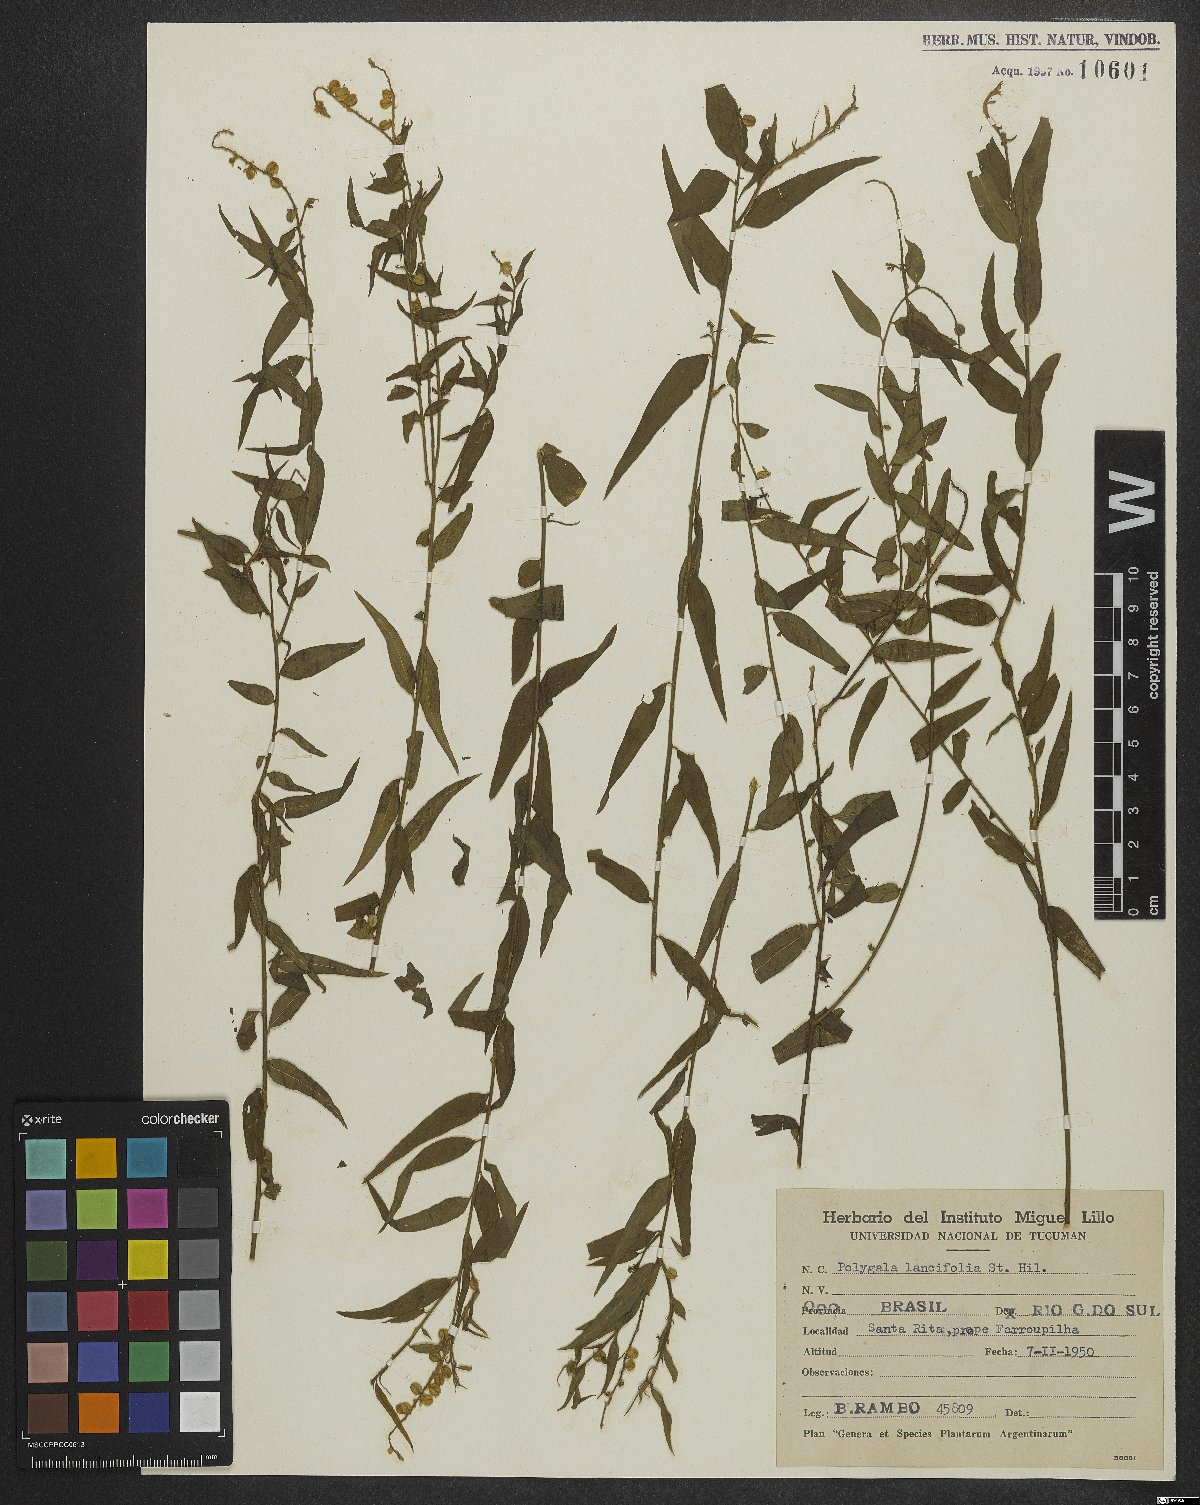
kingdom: Plantae
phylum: Tracheophyta
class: Magnoliopsida
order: Fabales
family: Polygalaceae
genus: Polygala
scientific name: Polygala lancifolia
